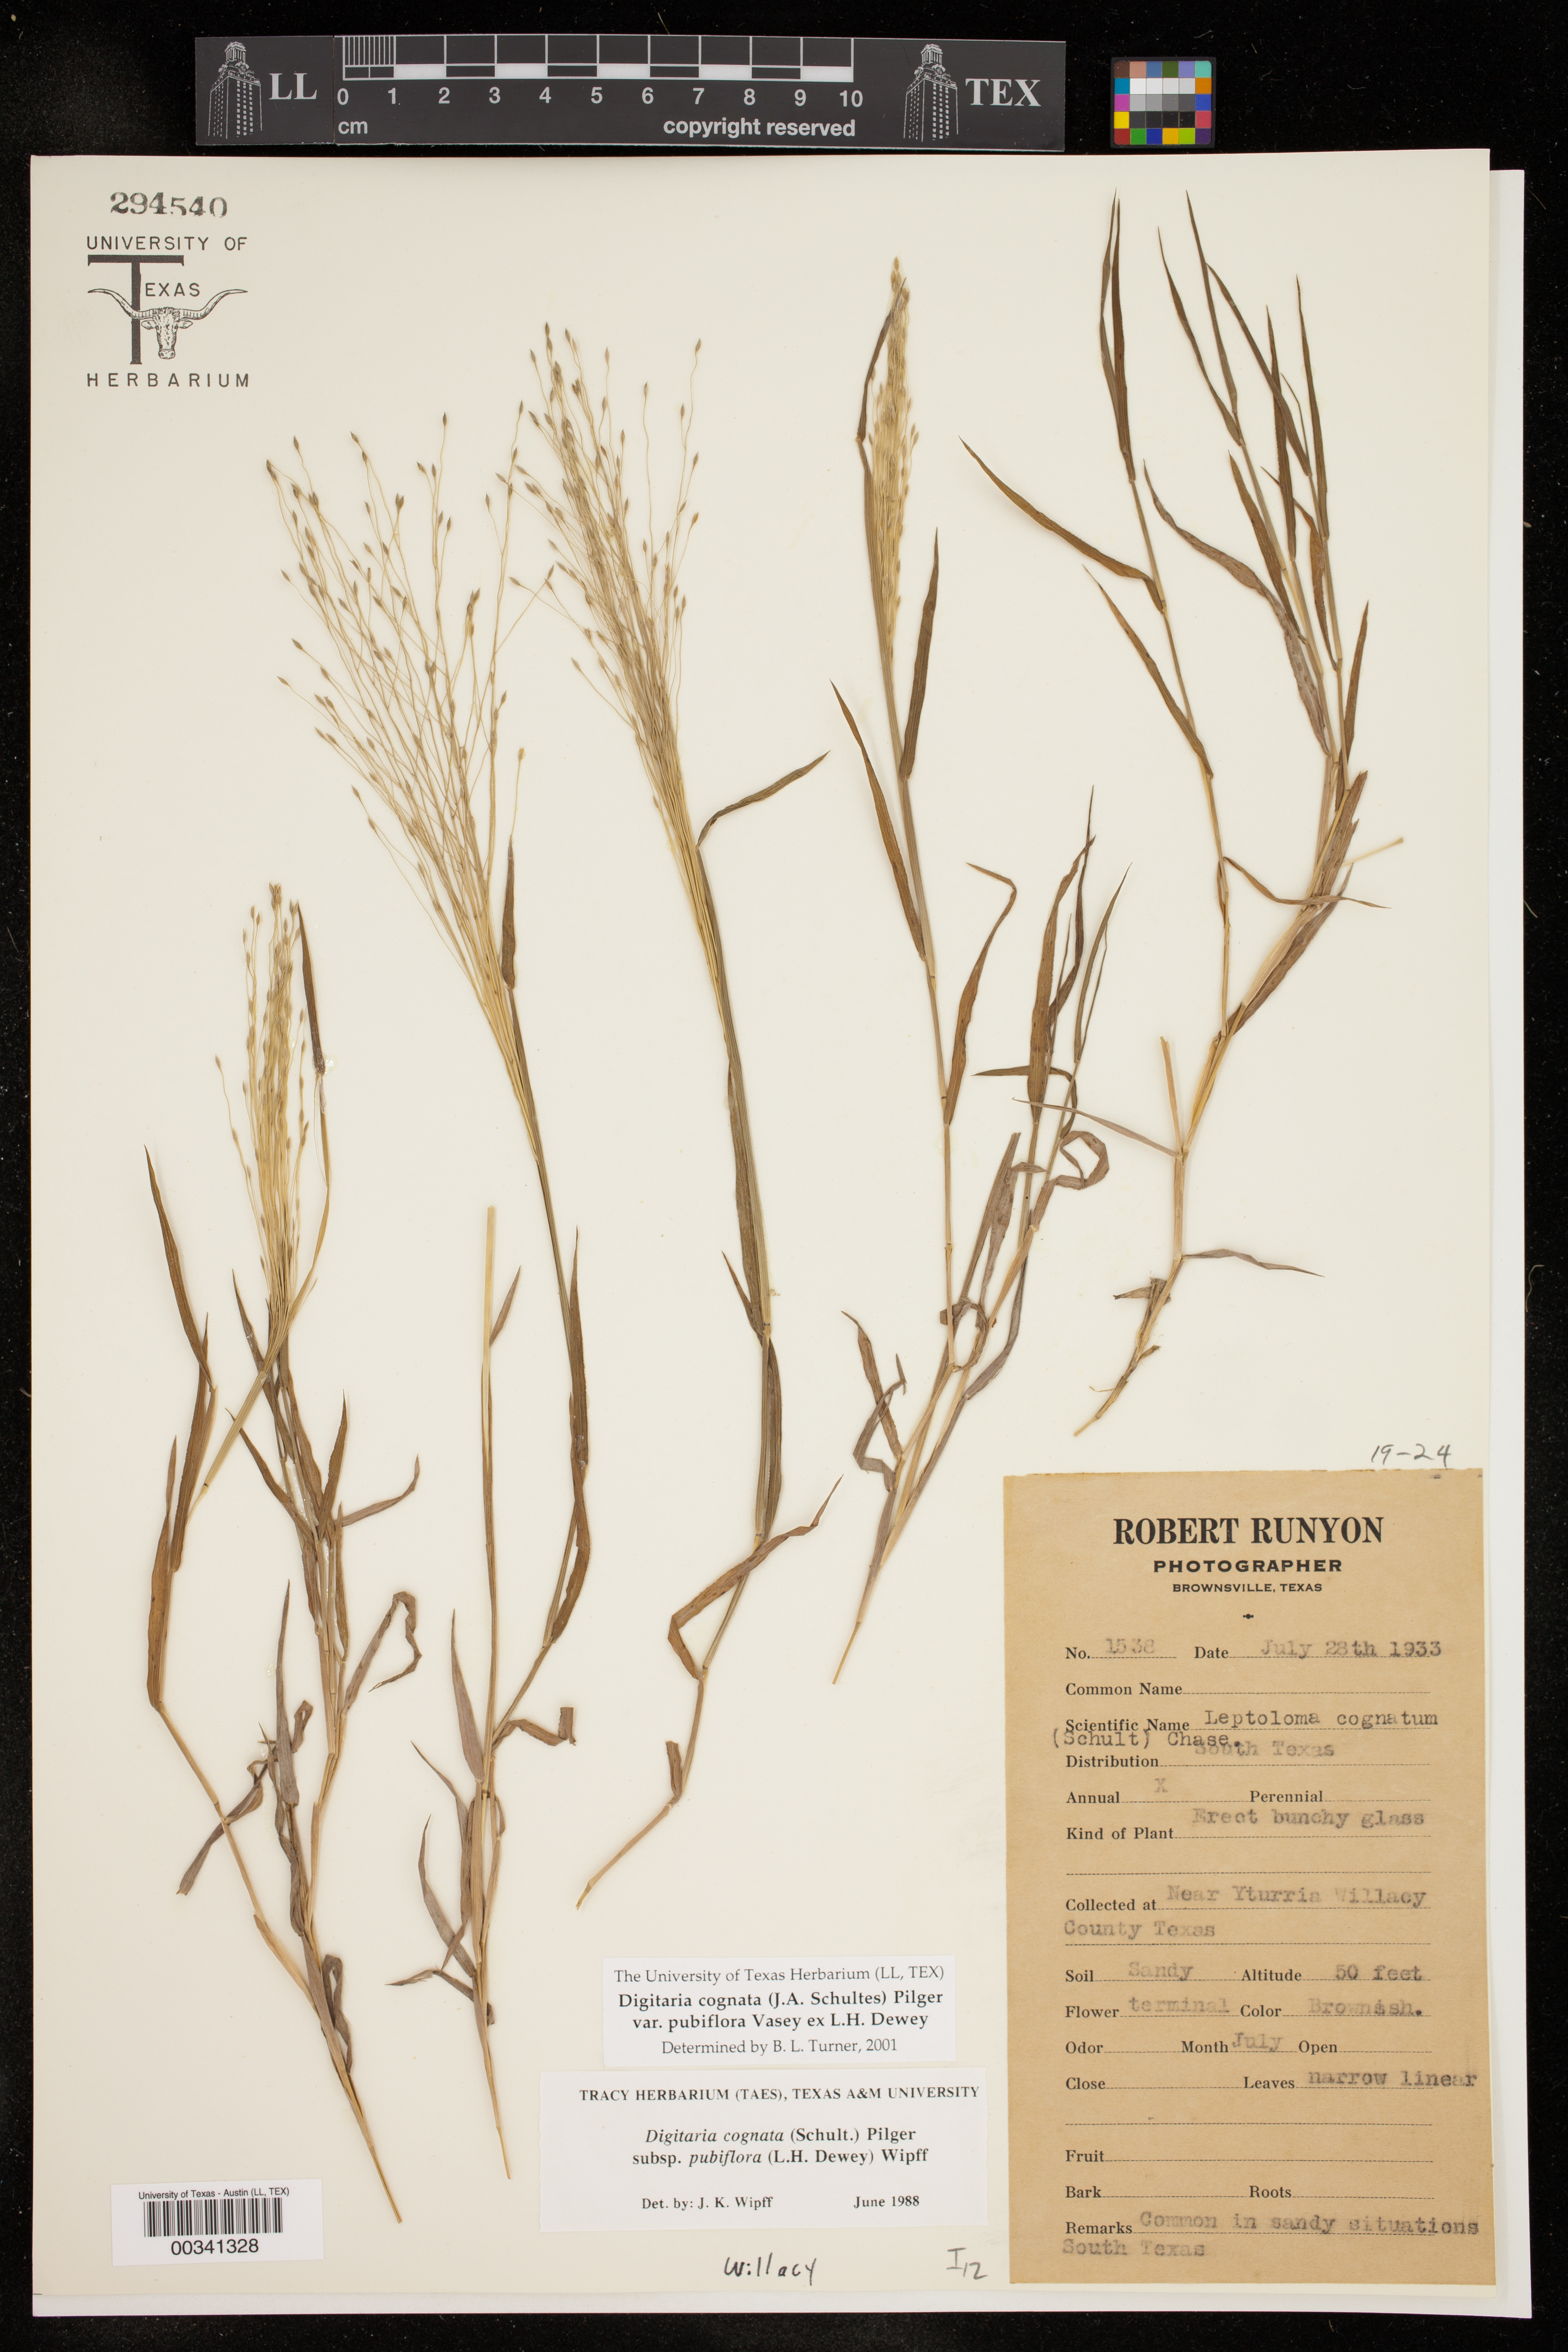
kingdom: Plantae
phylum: Tracheophyta
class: Liliopsida
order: Poales
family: Poaceae
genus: Digitaria
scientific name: Digitaria cognata
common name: Fall witchgrass
